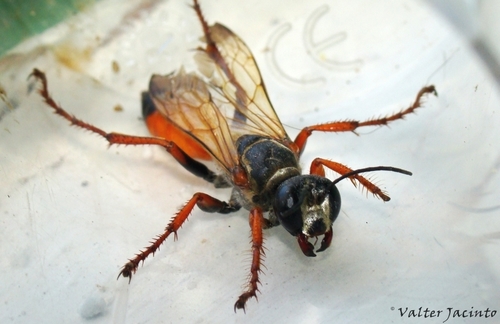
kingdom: Animalia
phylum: Arthropoda
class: Insecta
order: Hymenoptera
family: Sphecidae
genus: Sphex
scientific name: Sphex funerarius
